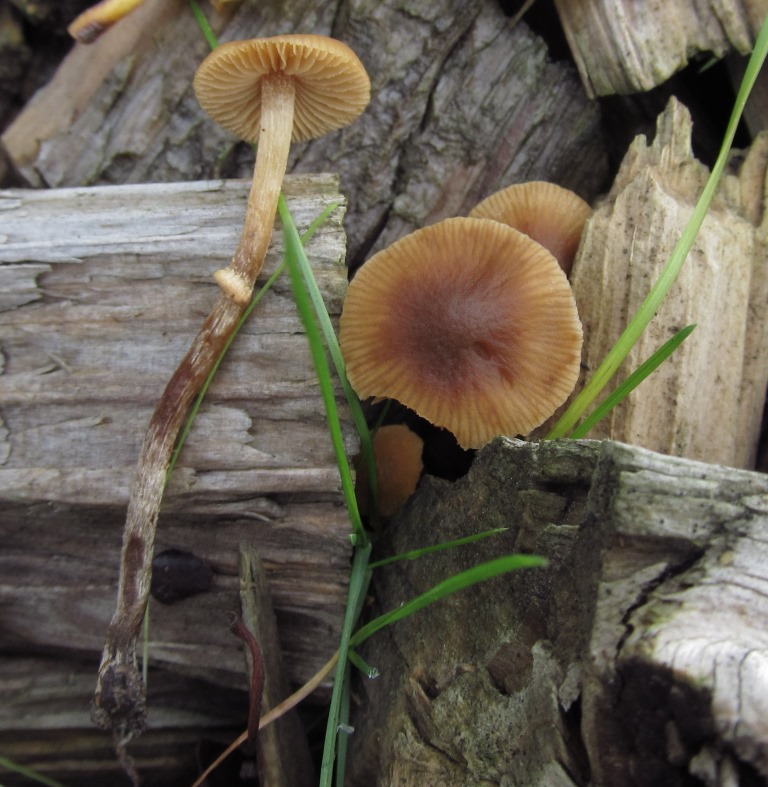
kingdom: Fungi
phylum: Basidiomycota
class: Agaricomycetes
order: Agaricales
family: Bolbitiaceae
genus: Conocybe
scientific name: Conocybe arrhenii
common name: ring-dansehat
